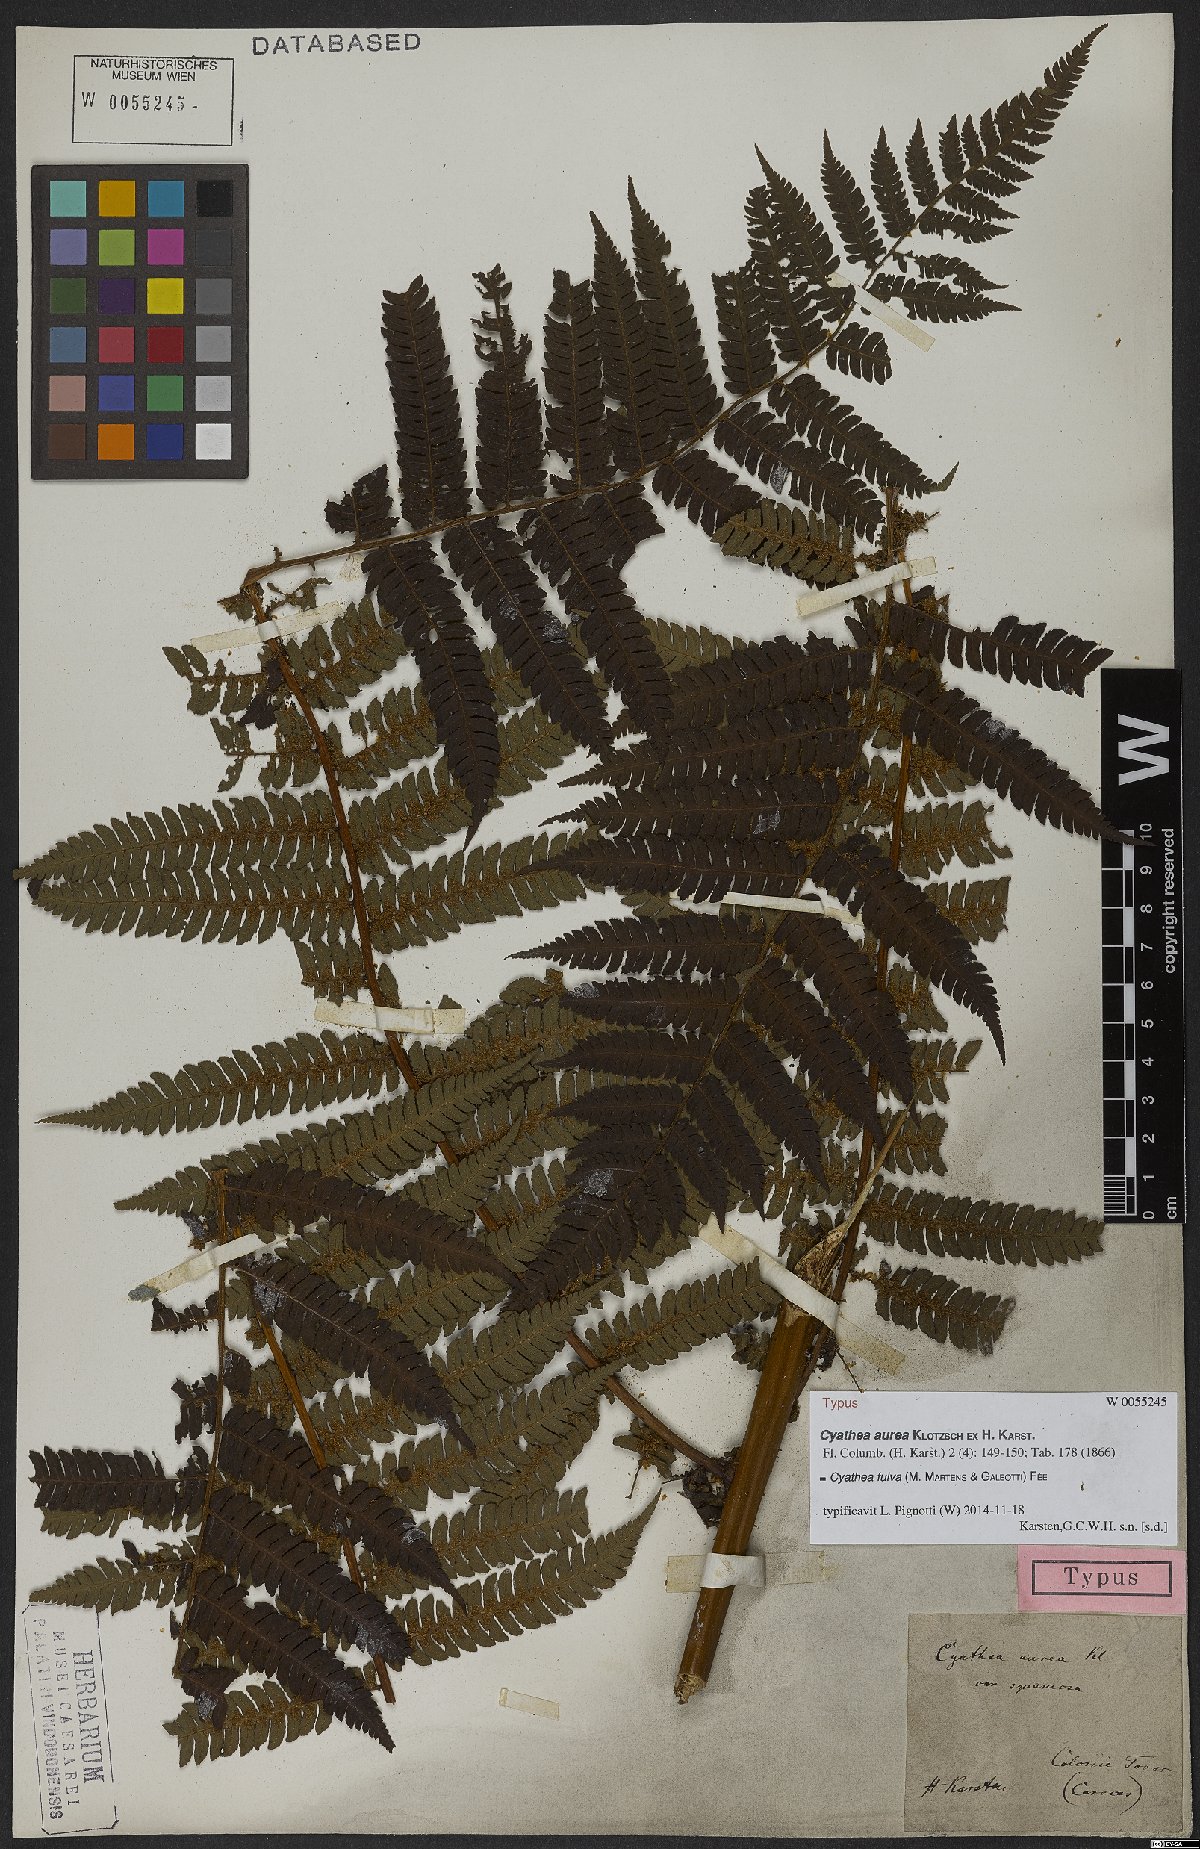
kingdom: Plantae
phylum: Tracheophyta
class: Polypodiopsida
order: Cyatheales
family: Cyatheaceae
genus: Cyathea
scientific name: Cyathea fulva
